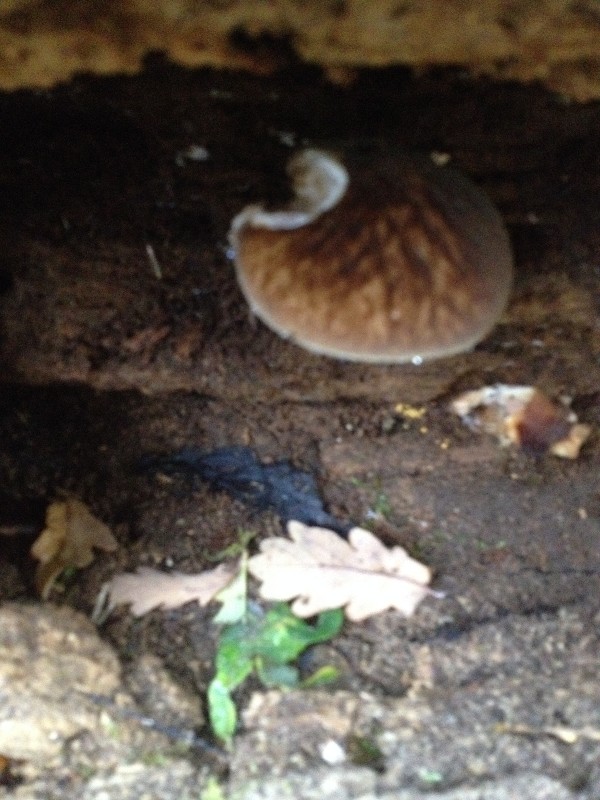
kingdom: Fungi
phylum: Basidiomycota
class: Agaricomycetes
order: Agaricales
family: Pluteaceae
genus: Pluteus
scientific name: Pluteus umbrosus
